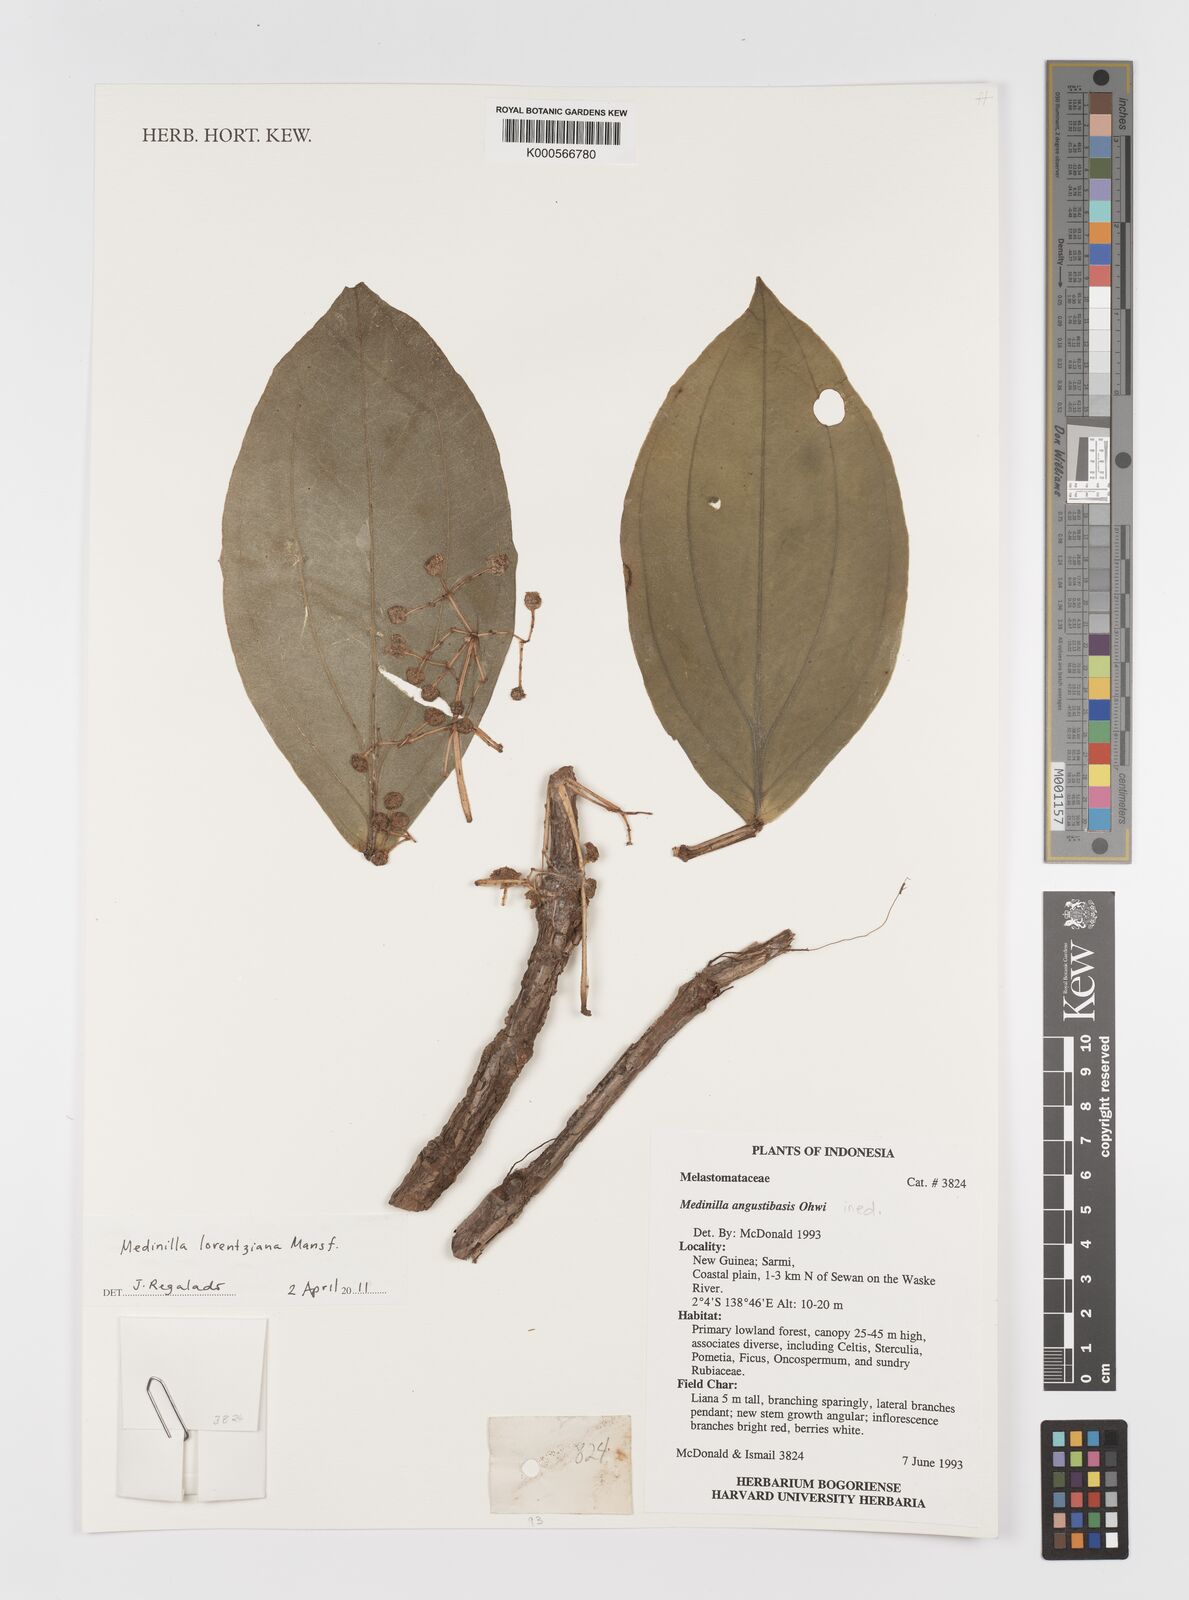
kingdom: Plantae
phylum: Tracheophyta
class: Magnoliopsida
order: Myrtales
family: Melastomataceae
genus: Medinilla
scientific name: Medinilla lorentziana
